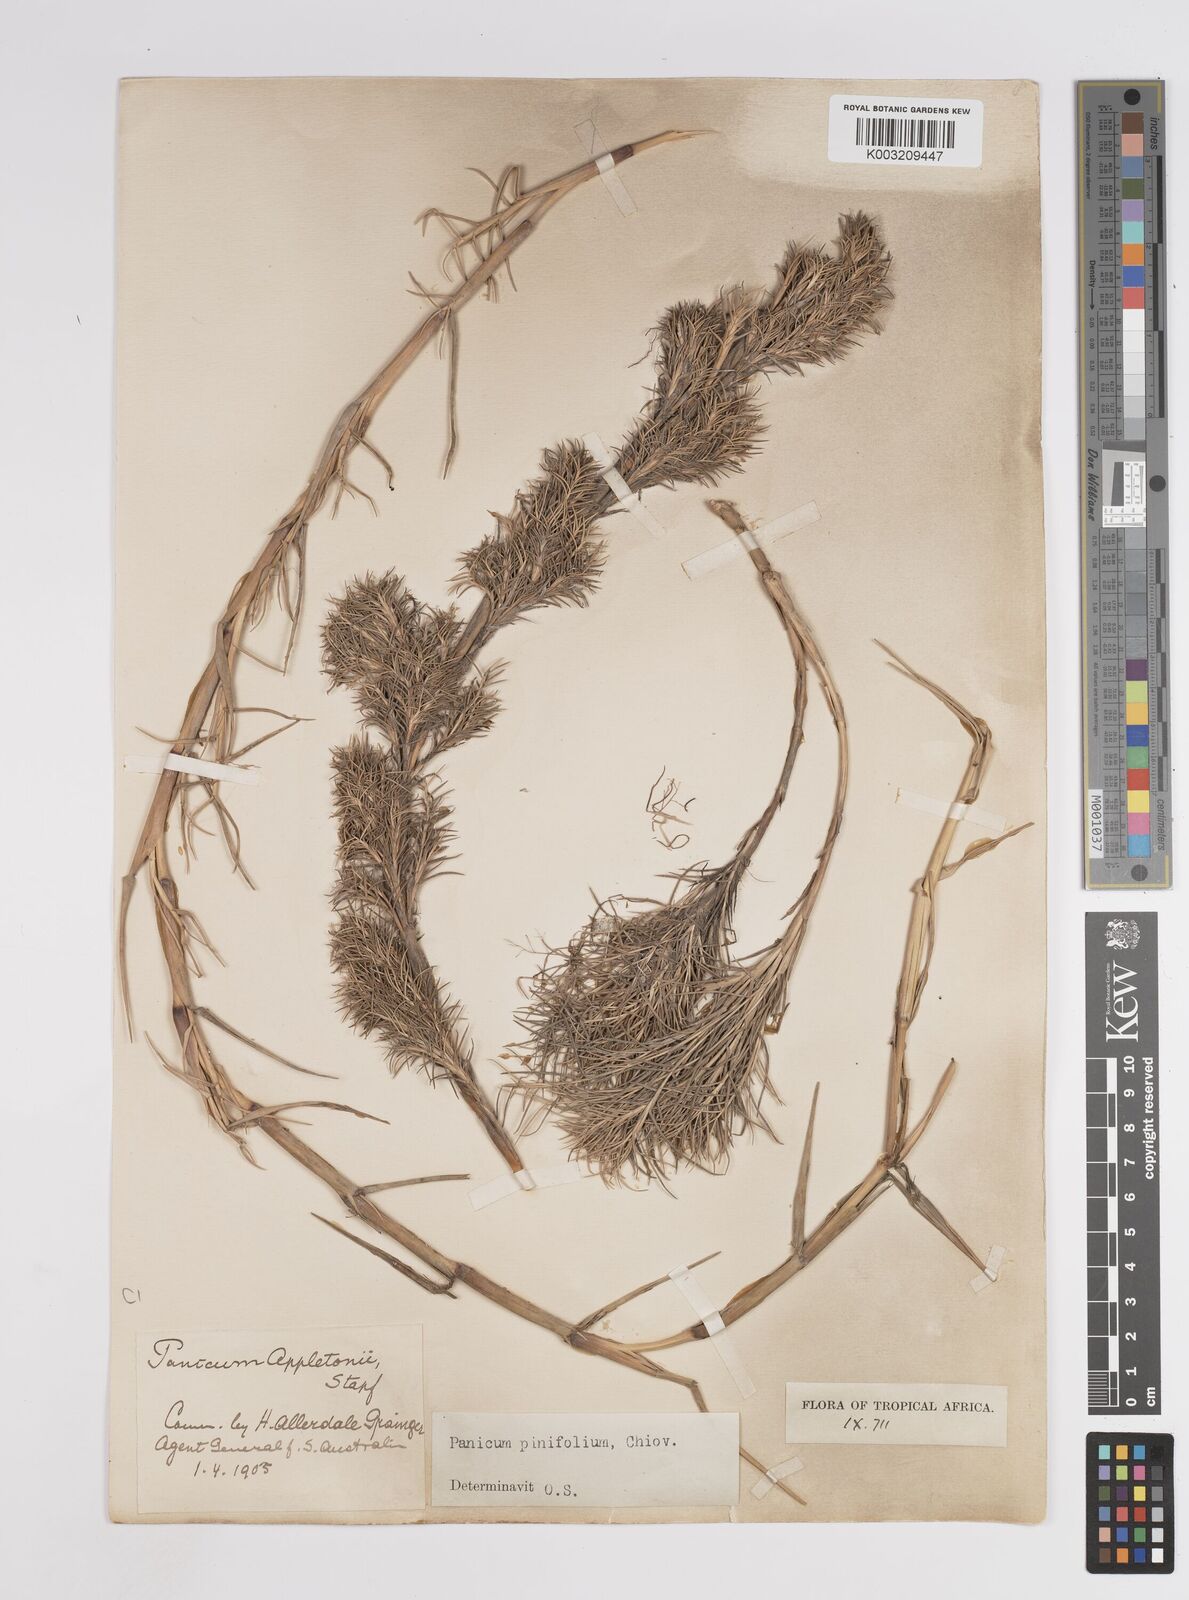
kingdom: Plantae
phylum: Tracheophyta
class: Liliopsida
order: Poales
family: Poaceae
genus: Panicum
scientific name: Panicum pinifolium
